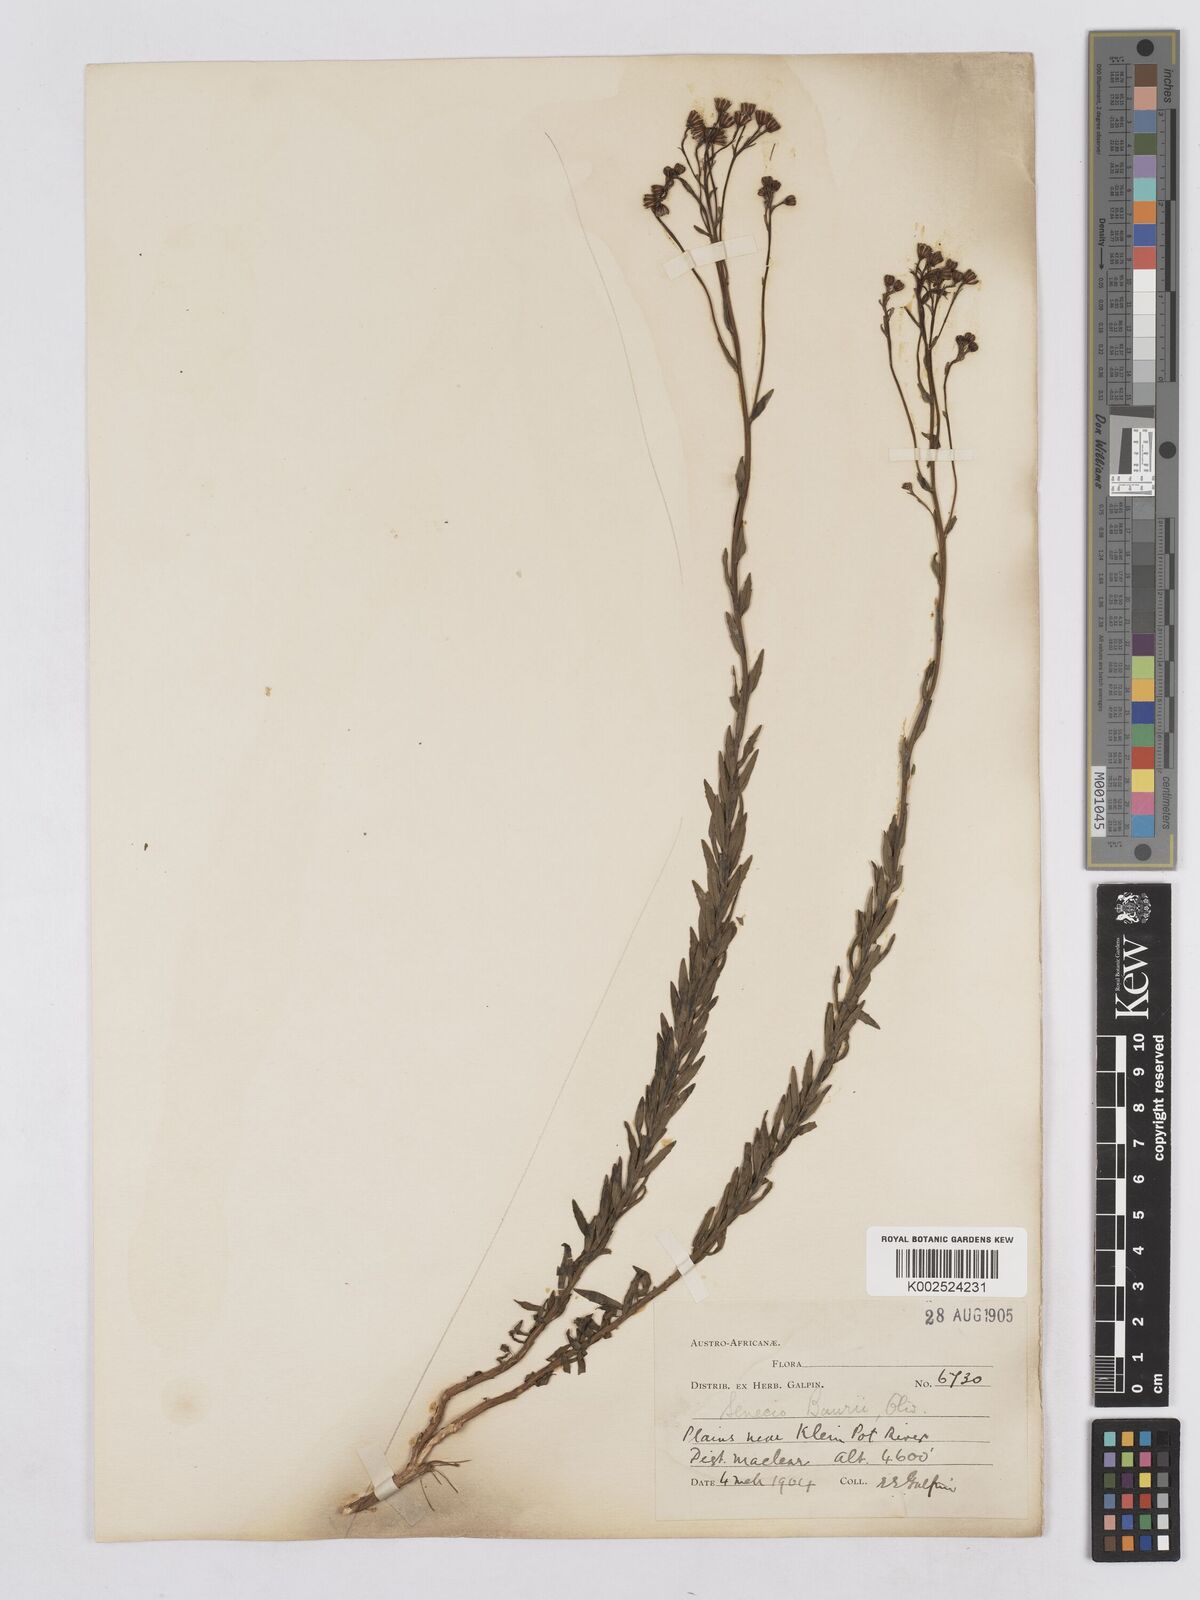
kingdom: Plantae
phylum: Tracheophyta
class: Magnoliopsida
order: Asterales
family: Asteraceae
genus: Senecio
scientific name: Senecio baurii
